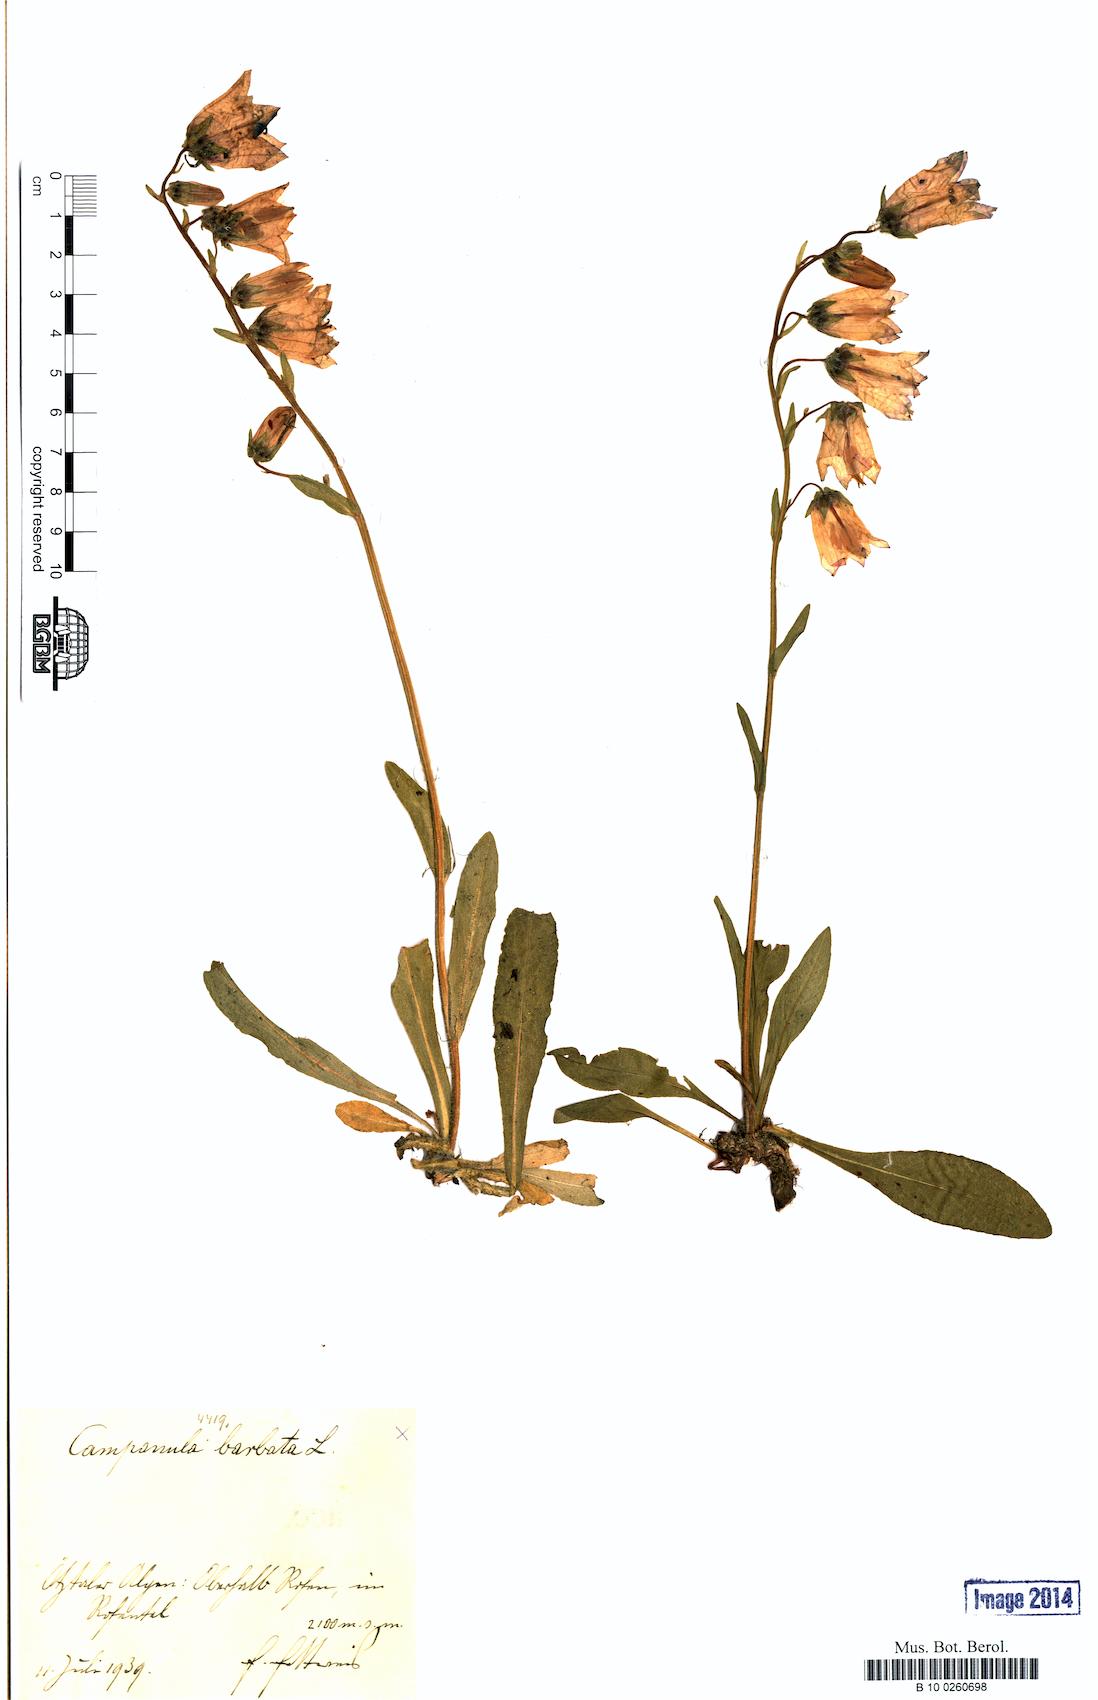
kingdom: Plantae
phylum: Tracheophyta
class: Magnoliopsida
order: Asterales
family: Campanulaceae
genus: Campanula
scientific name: Campanula barbata
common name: Bearded bellflower
